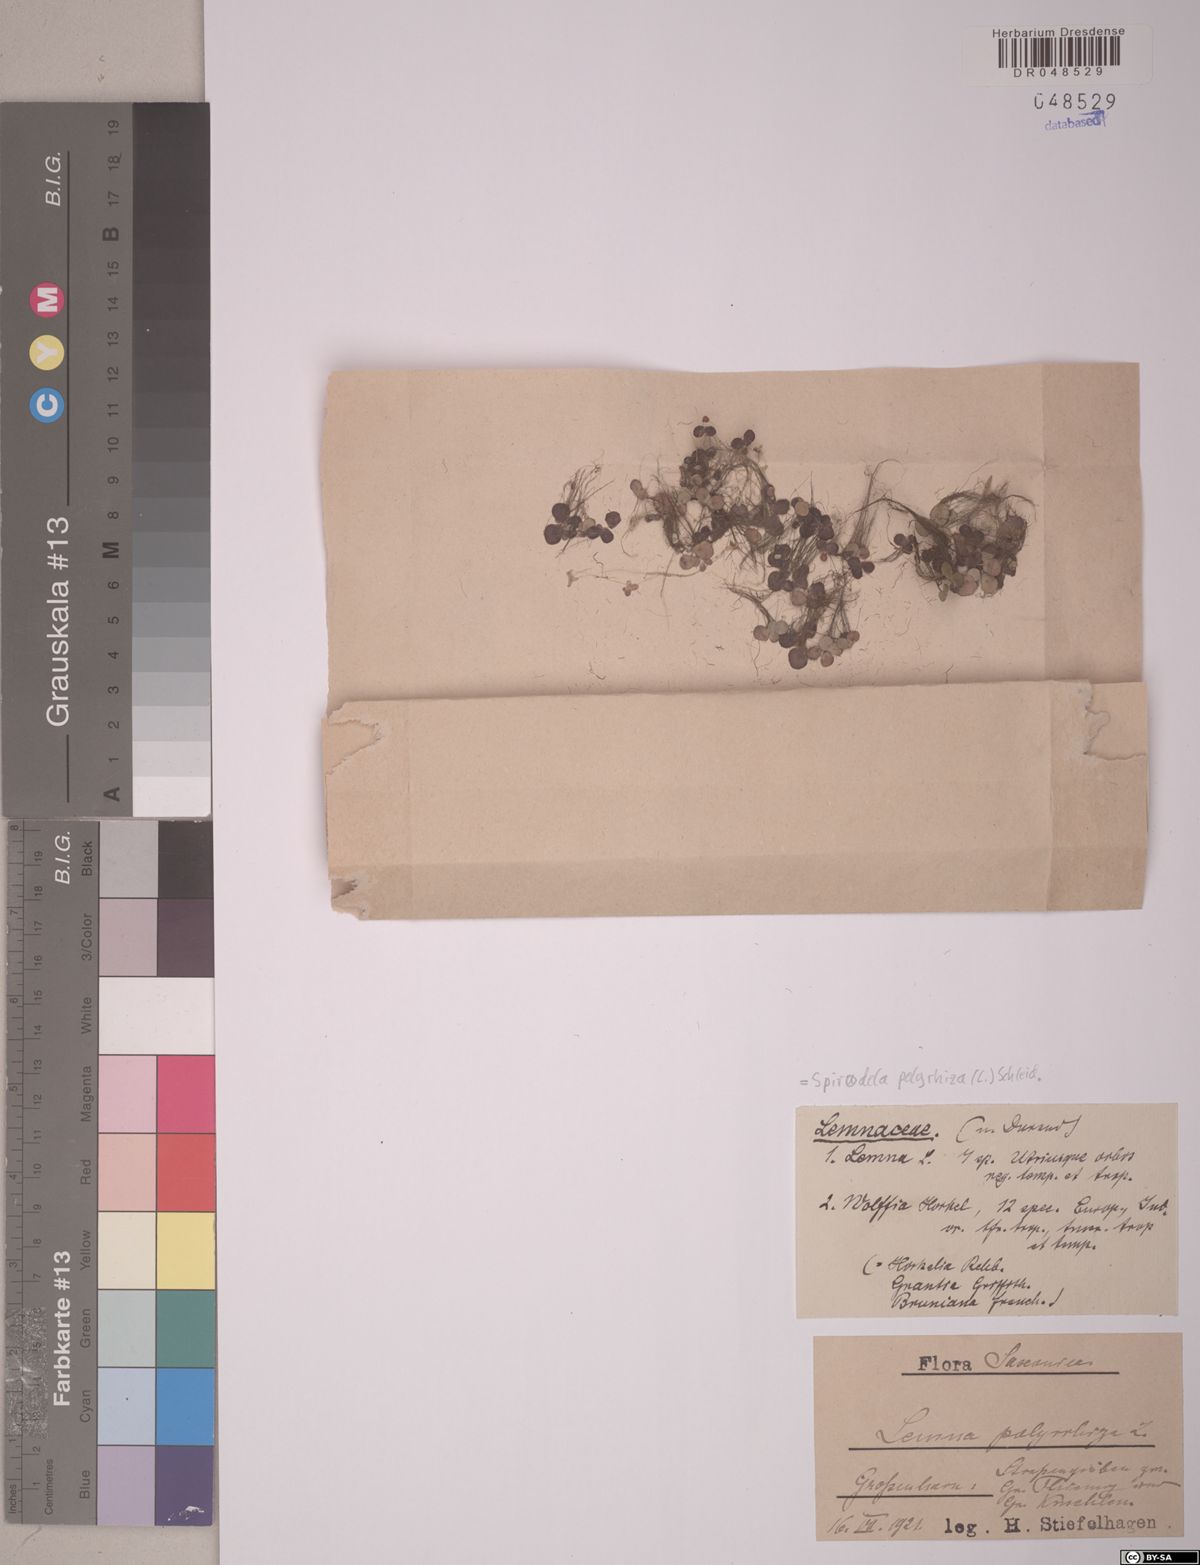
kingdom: Plantae
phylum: Tracheophyta
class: Liliopsida
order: Alismatales
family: Araceae
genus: Spirodela
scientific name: Spirodela polyrhiza
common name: Great duckweed
